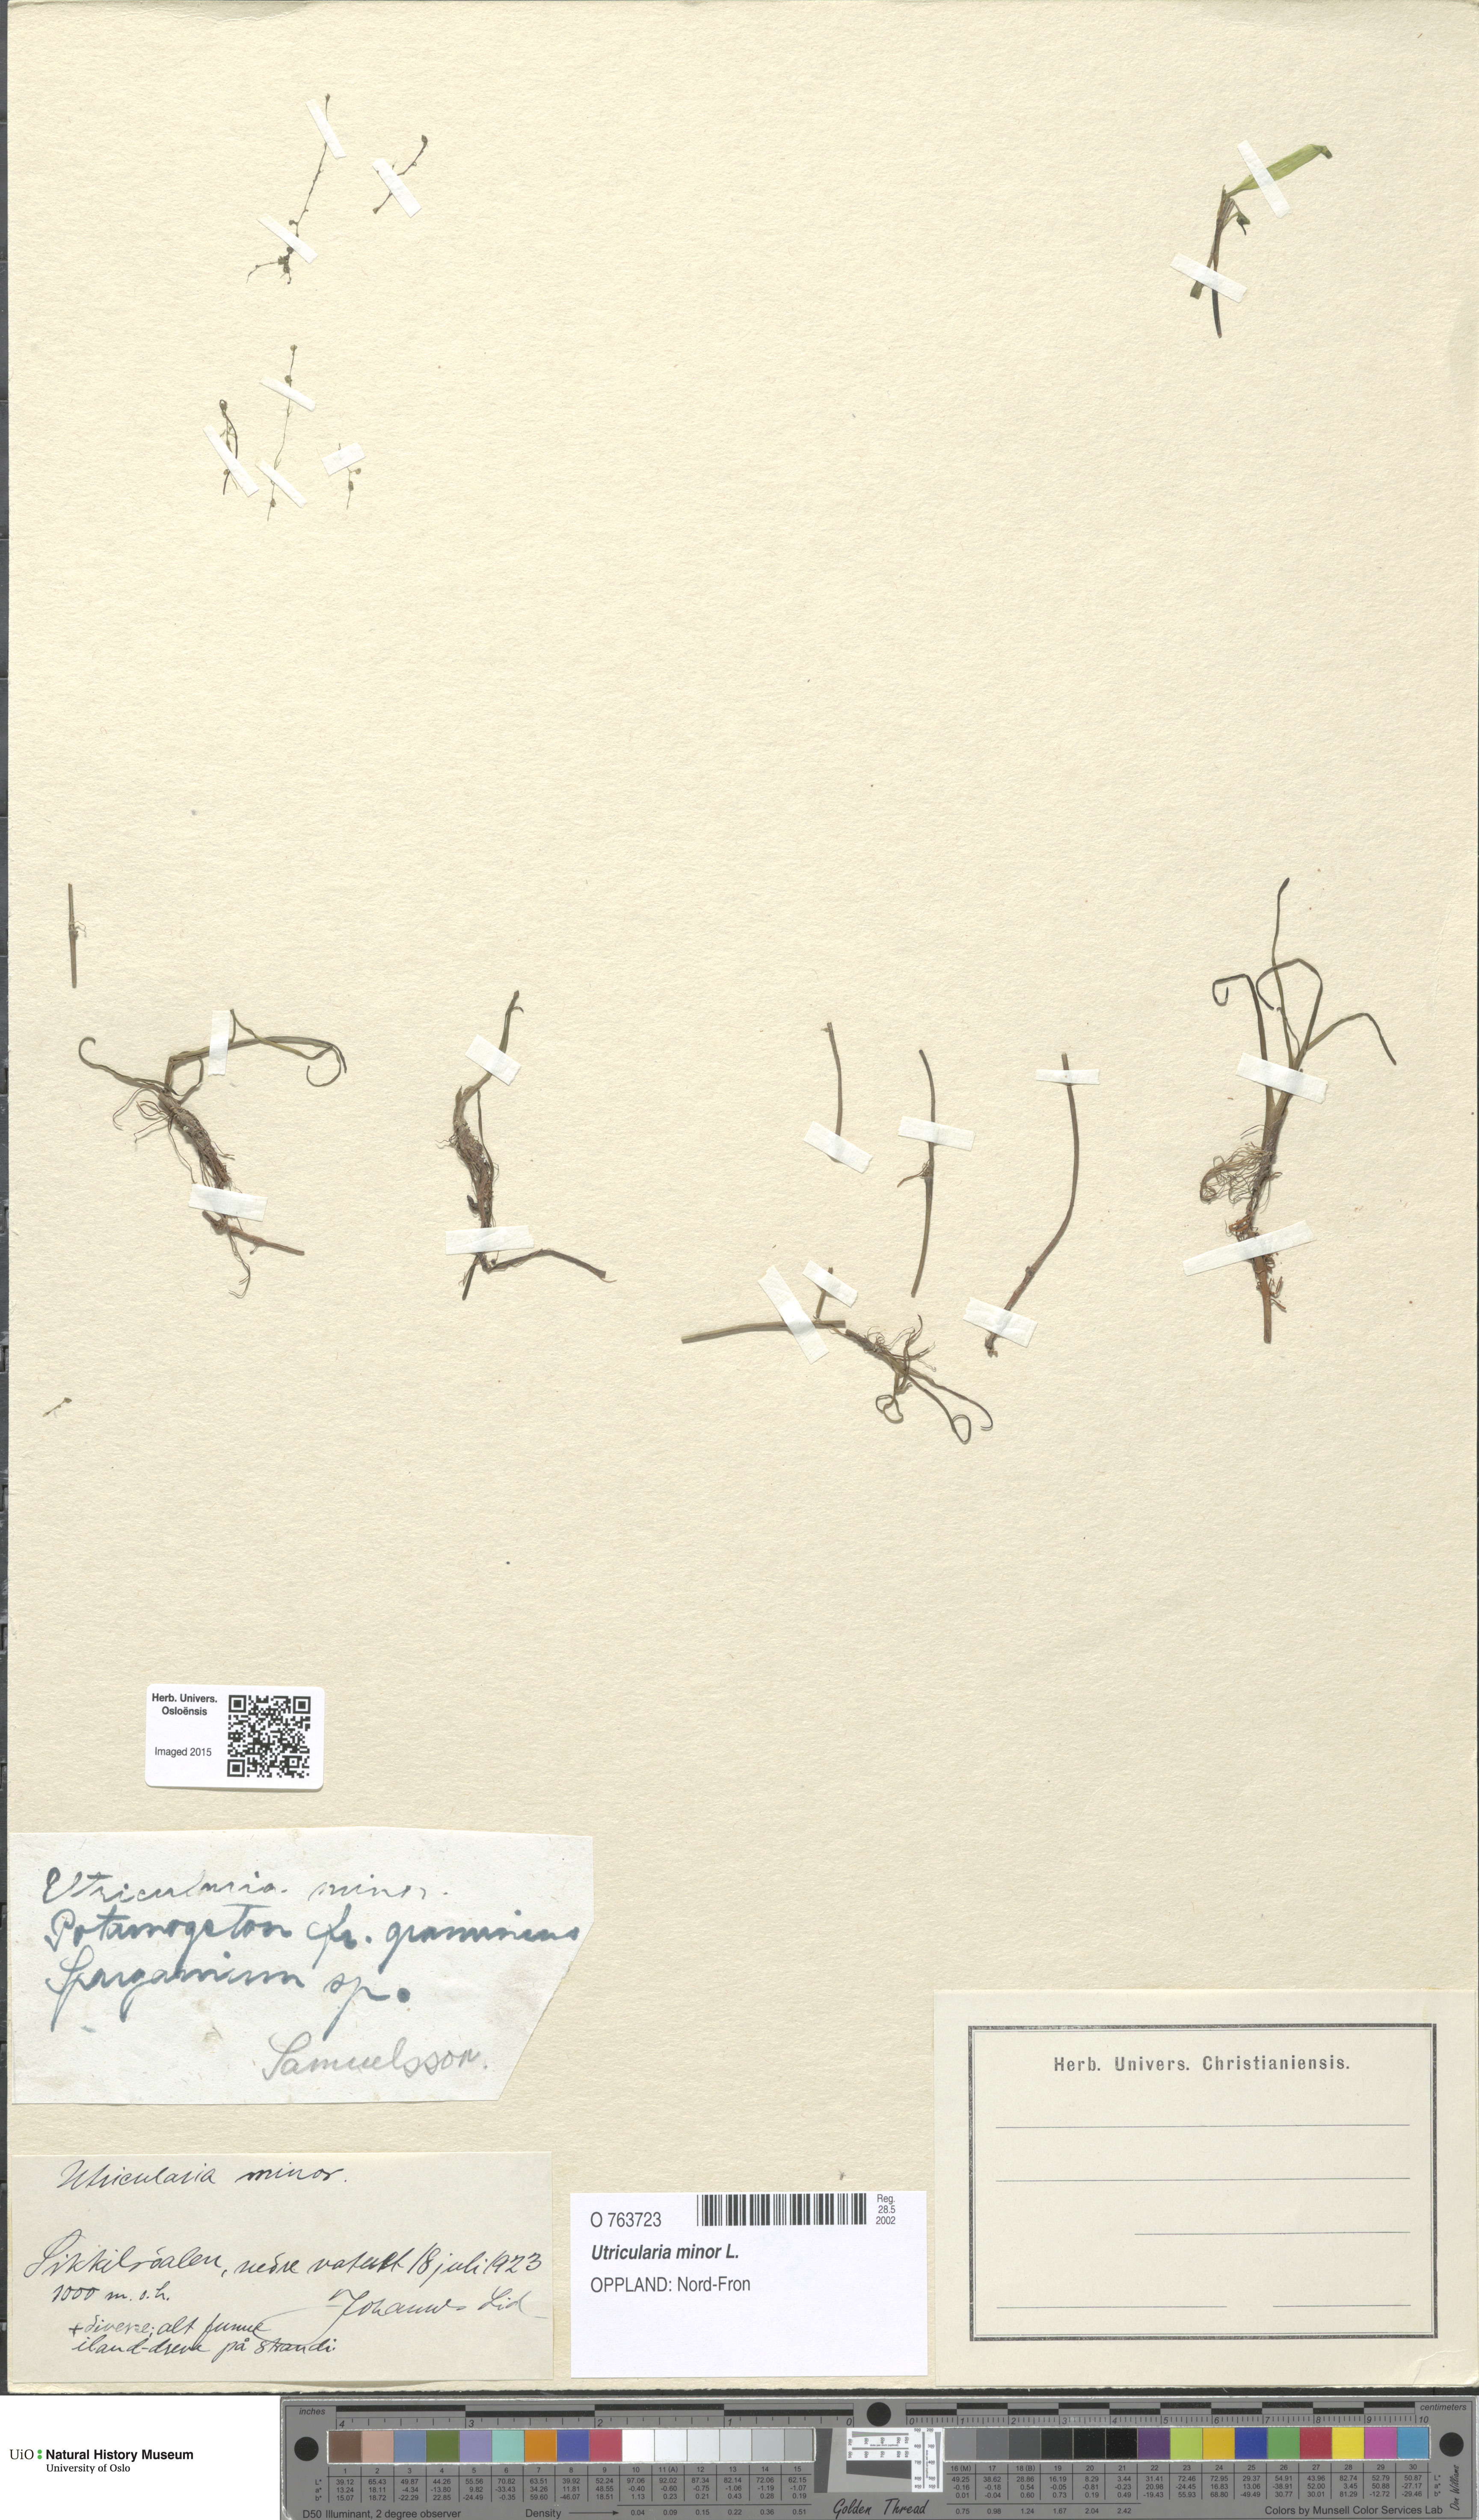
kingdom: Plantae
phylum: Tracheophyta
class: Magnoliopsida
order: Lamiales
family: Lentibulariaceae
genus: Utricularia
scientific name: Utricularia minor
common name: Lesser bladderwort
